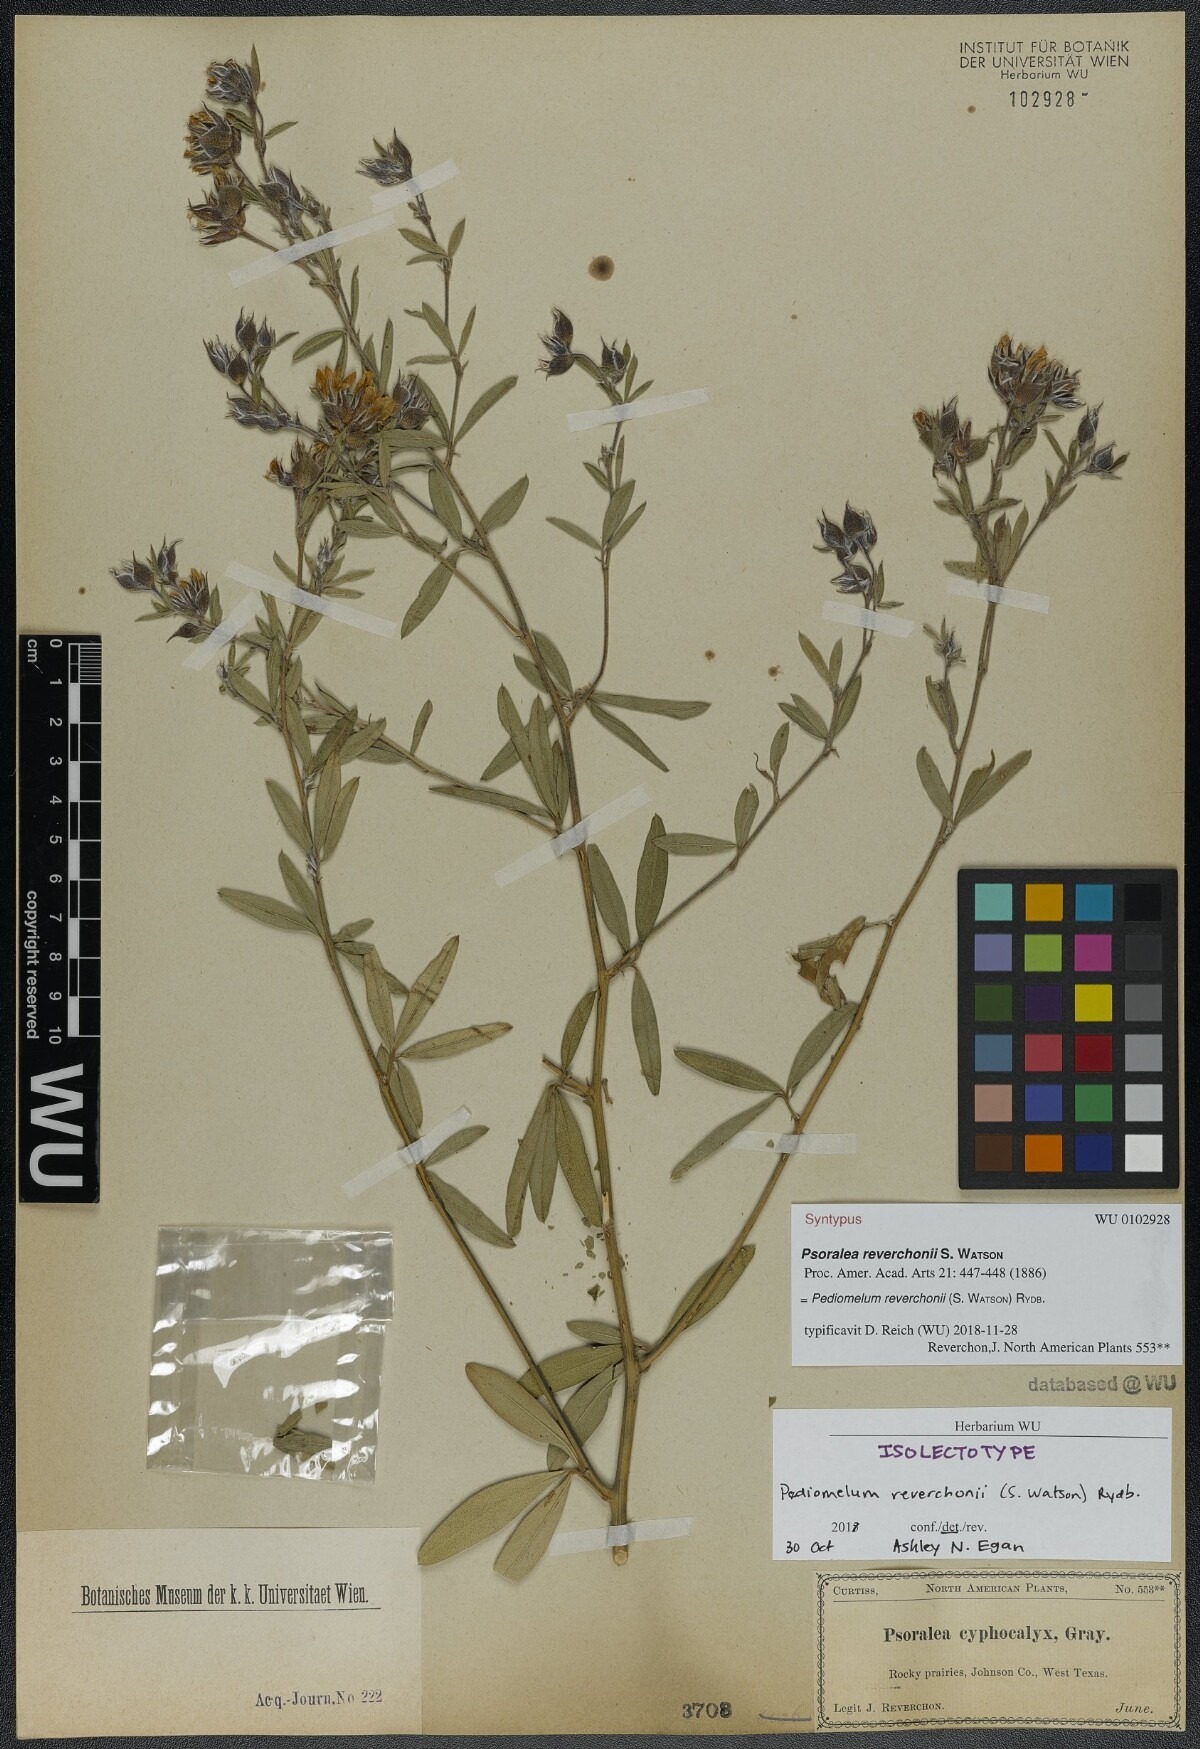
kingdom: Plantae
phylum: Tracheophyta
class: Magnoliopsida
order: Fabales
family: Fabaceae
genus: Pediomelum
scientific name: Pediomelum reverchonii
